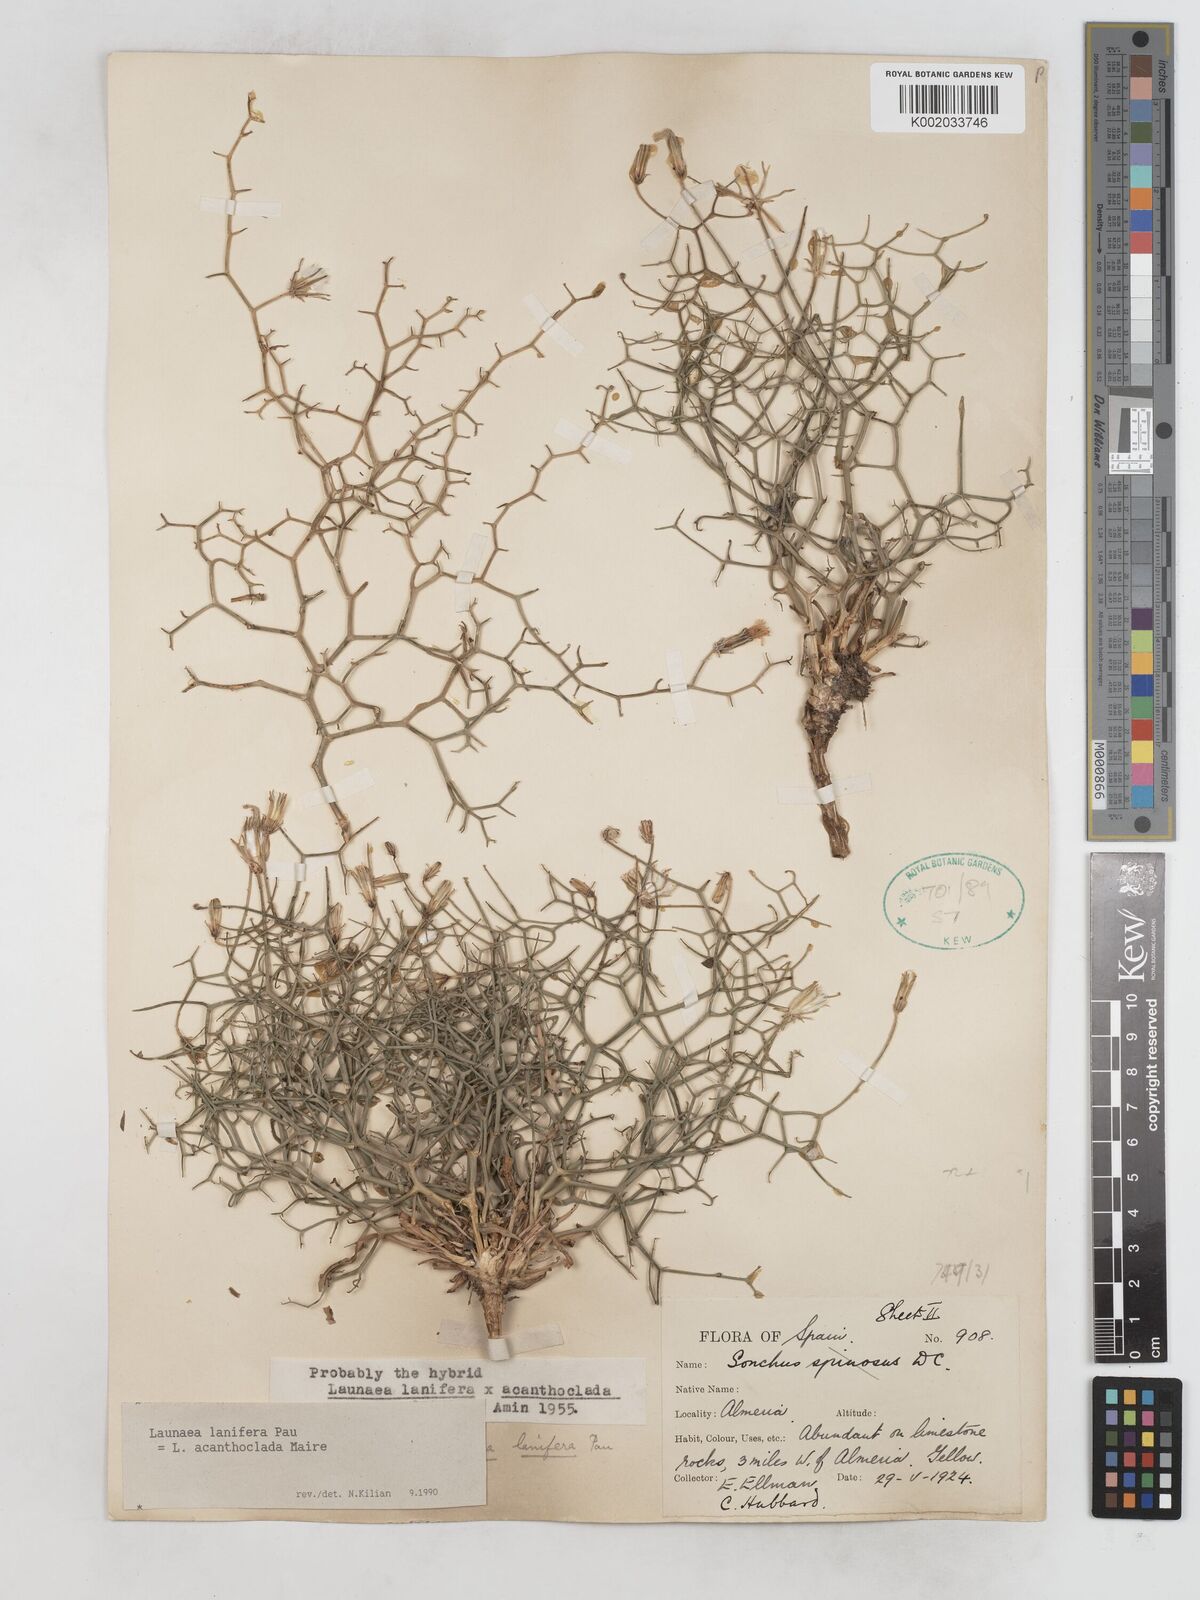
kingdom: Plantae
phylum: Tracheophyta
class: Magnoliopsida
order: Asterales
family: Asteraceae
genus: Launaea
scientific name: Launaea lanifera
